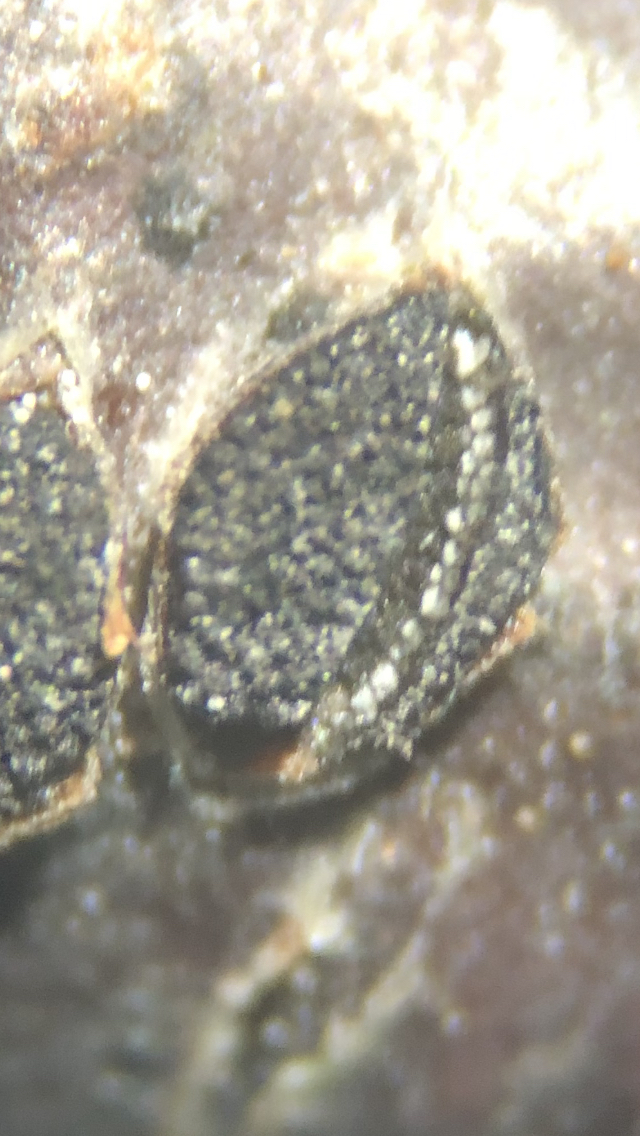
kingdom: Fungi
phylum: Ascomycota
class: Dothideomycetes
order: Botryosphaeriales
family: Botryosphaeriaceae
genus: Dothiora
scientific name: Dothiora ribesia
